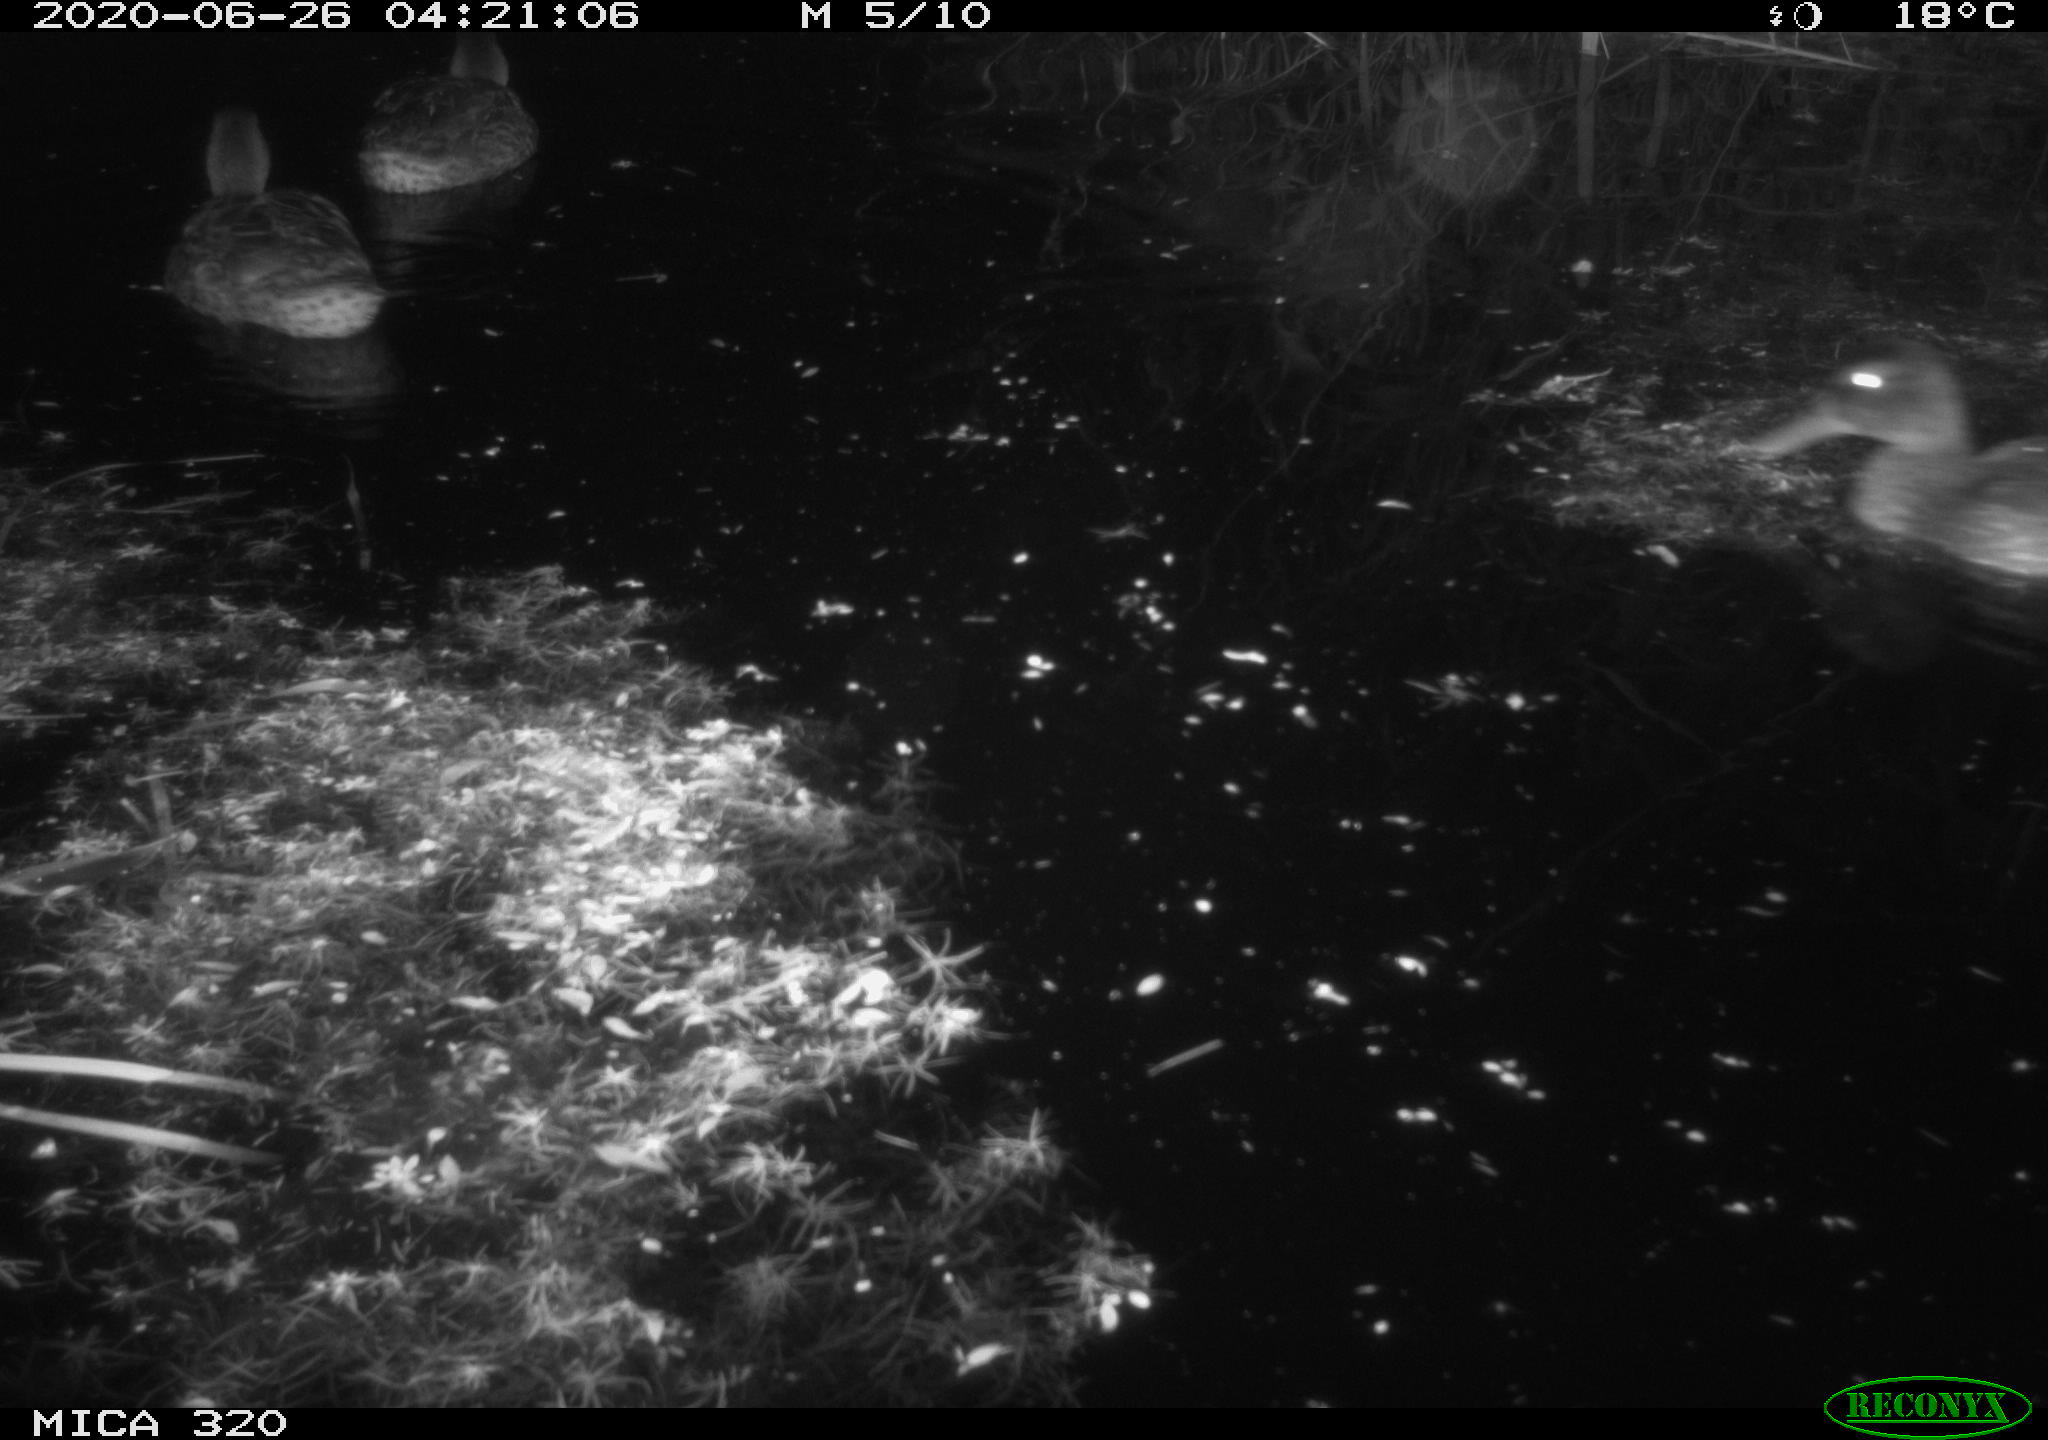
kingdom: Animalia
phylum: Chordata
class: Aves
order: Anseriformes
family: Anatidae
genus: Anas
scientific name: Anas platyrhynchos
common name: Mallard
